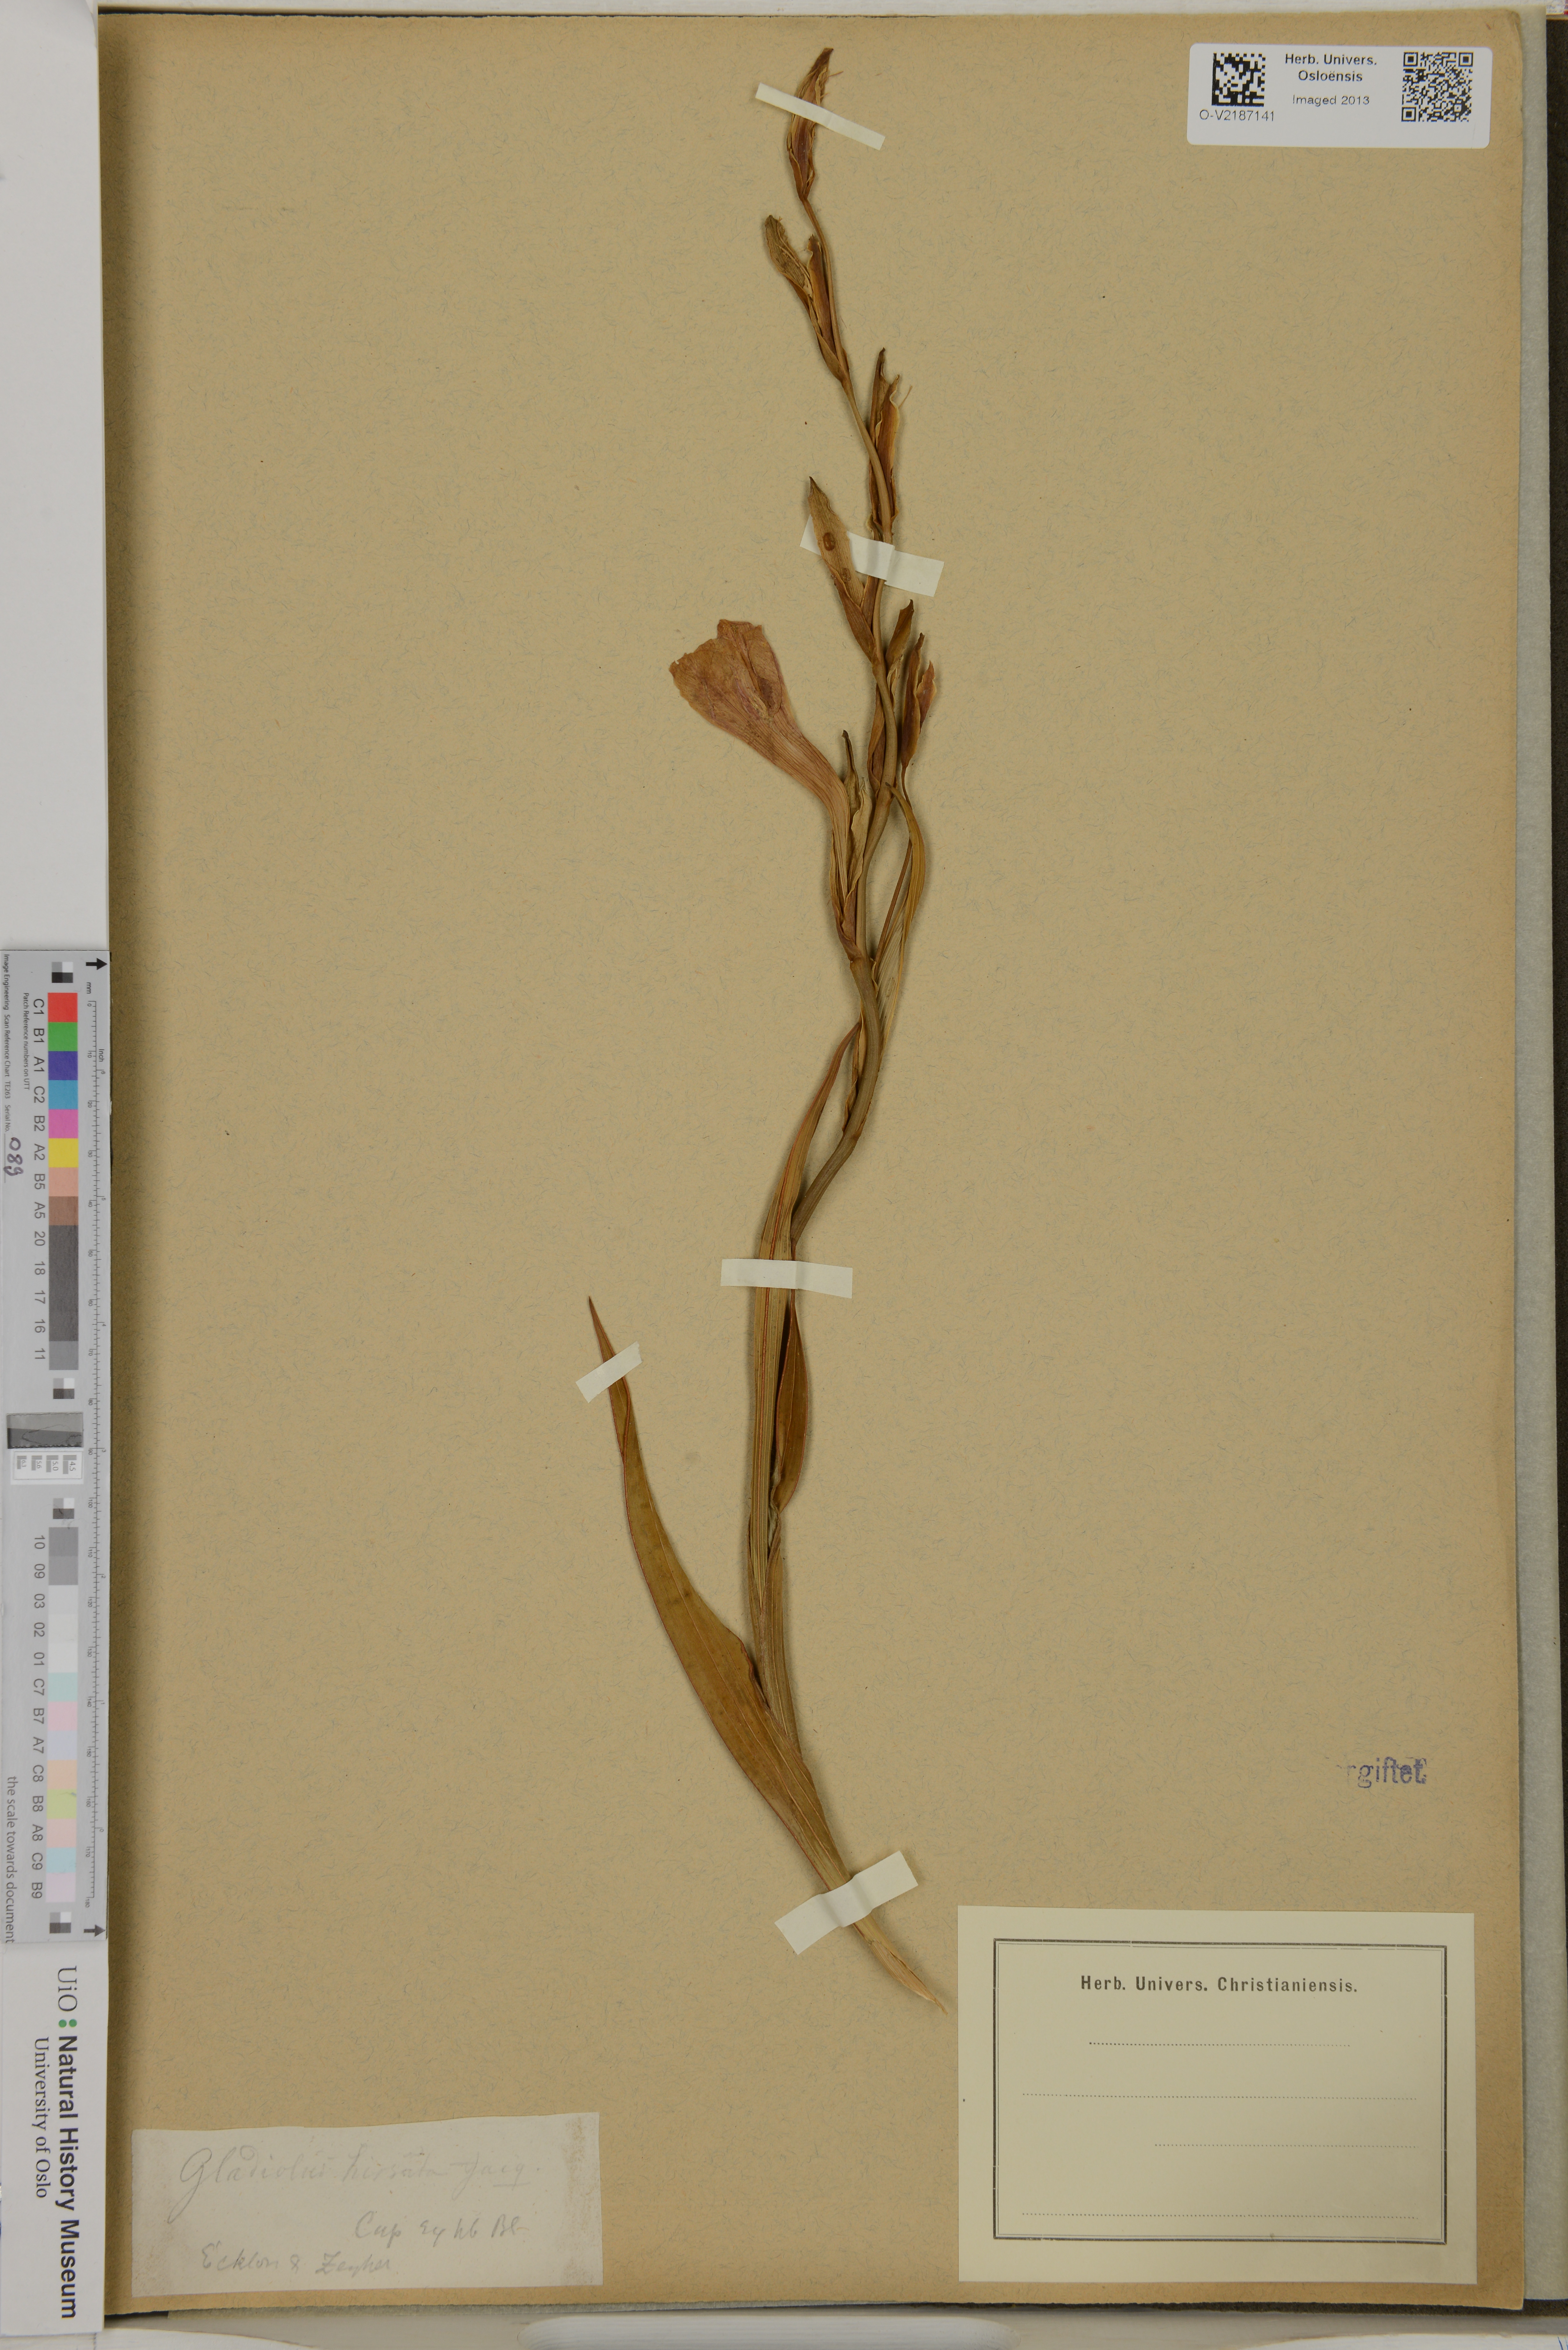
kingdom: Plantae
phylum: Tracheophyta
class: Liliopsida
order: Asparagales
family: Iridaceae
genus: Gladiolus
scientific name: Gladiolus hirsutus
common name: Small pink afrikaner
